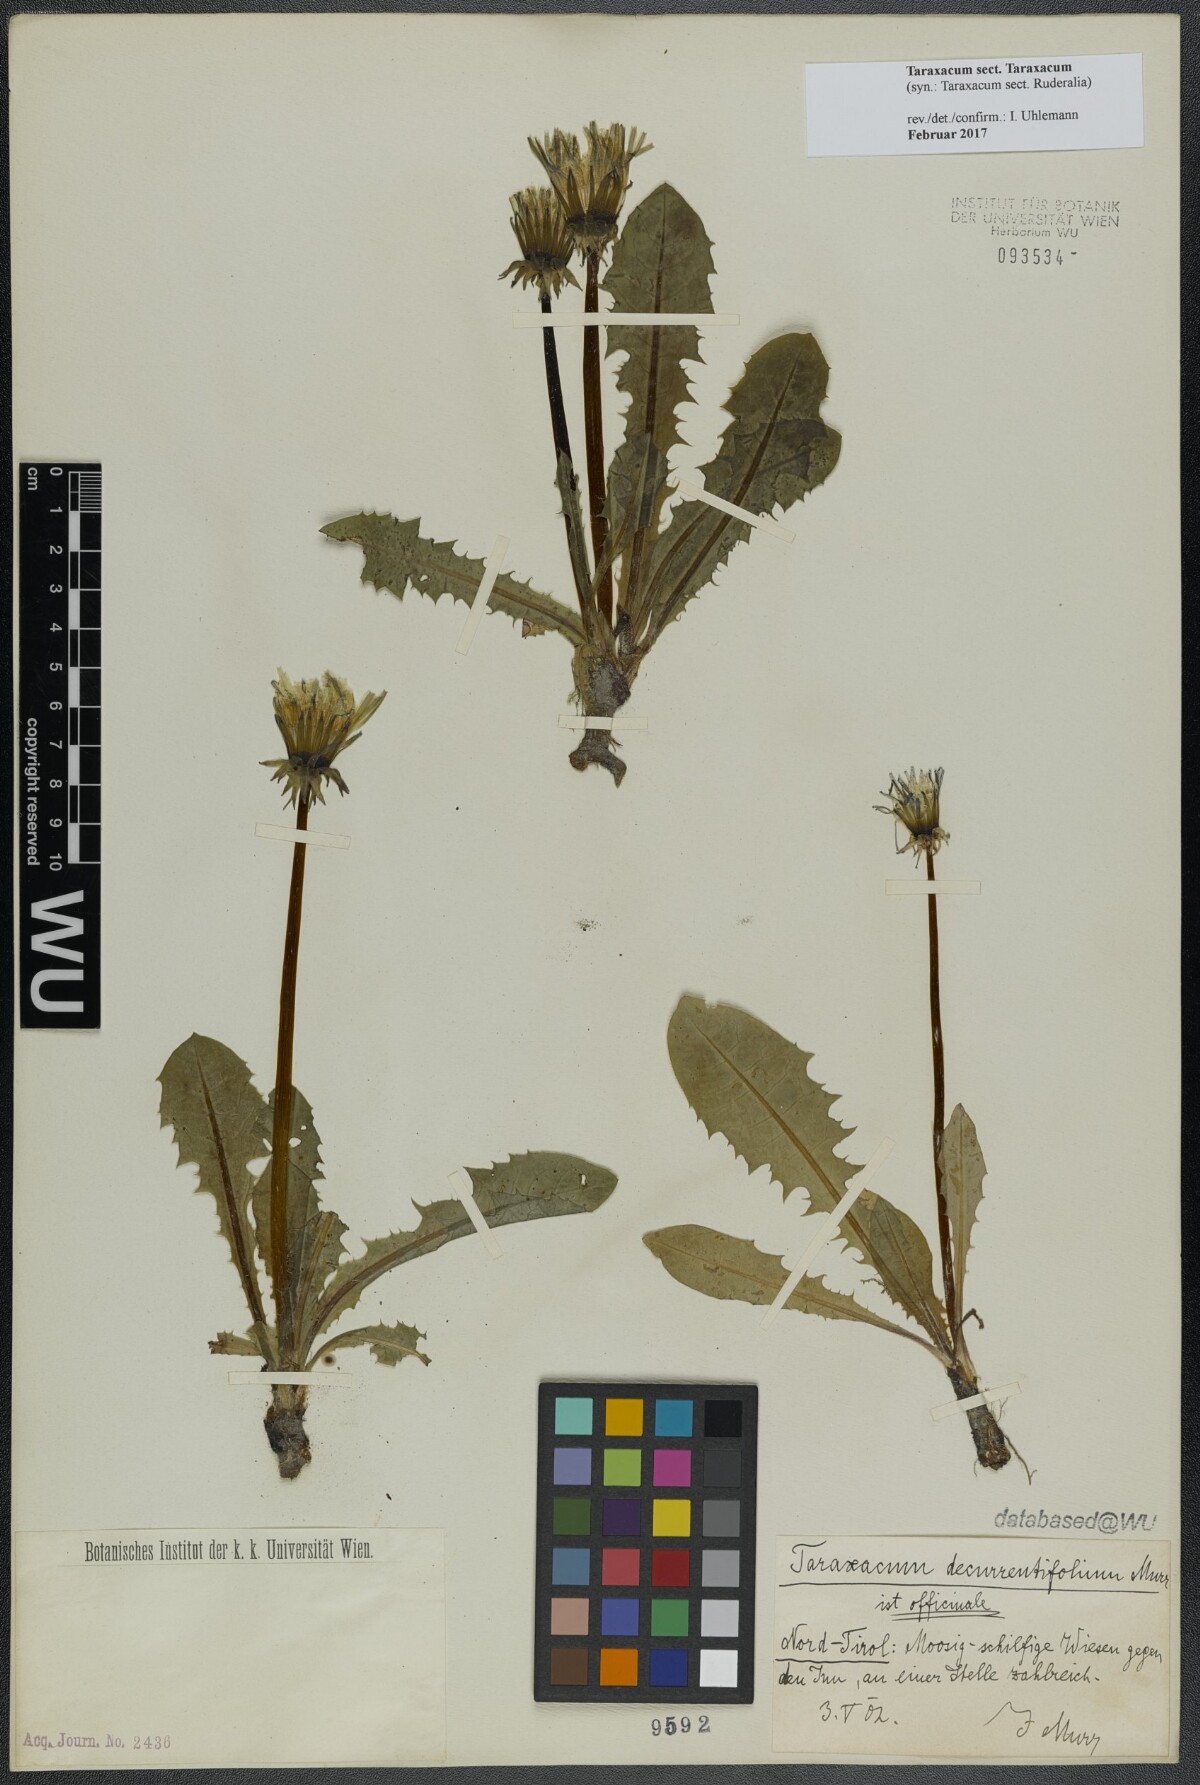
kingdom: Plantae
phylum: Tracheophyta
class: Magnoliopsida
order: Asterales
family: Asteraceae
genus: Taraxacum
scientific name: Taraxacum
